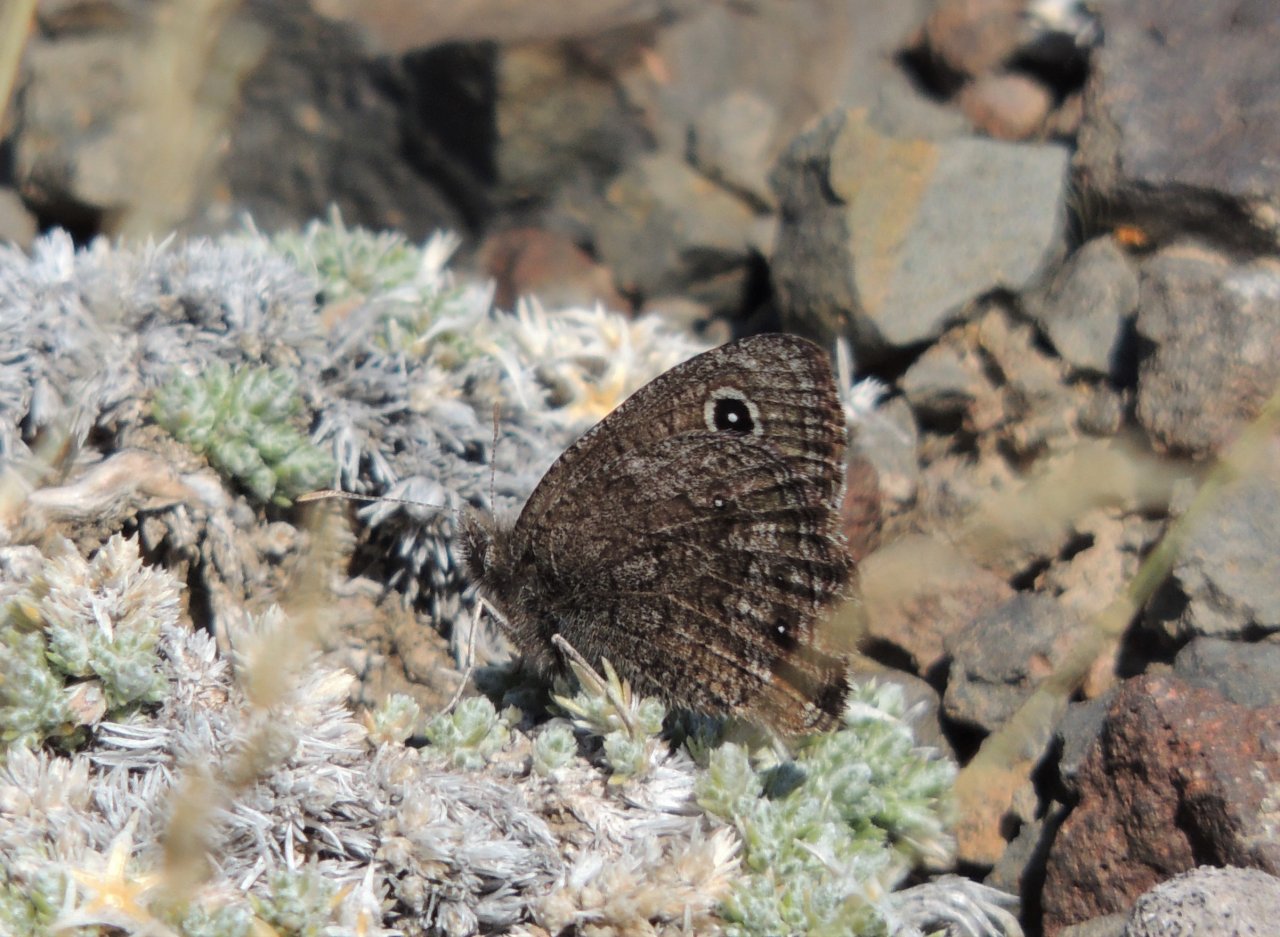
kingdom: Animalia
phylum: Arthropoda
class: Insecta
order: Lepidoptera
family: Nymphalidae
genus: Cercyonis
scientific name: Cercyonis oetus
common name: Small Wood-Nymph
